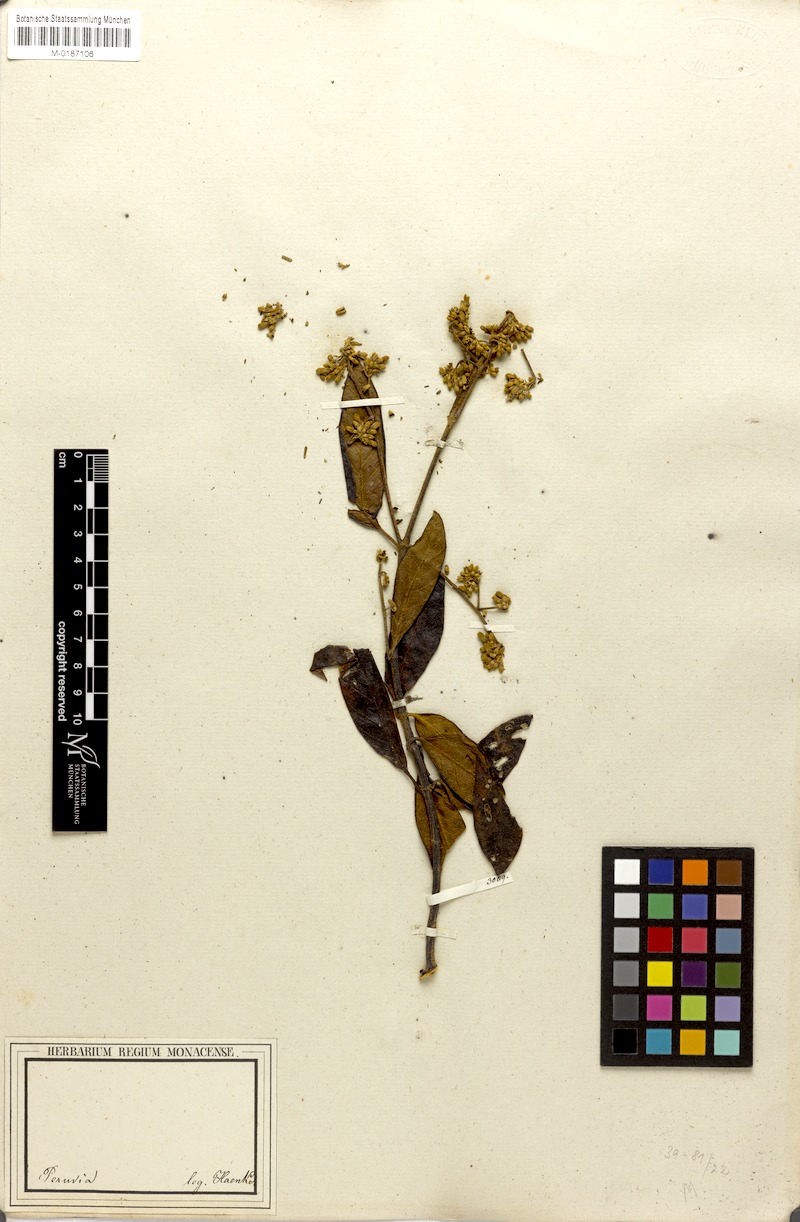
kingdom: Plantae
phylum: Tracheophyta
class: Magnoliopsida
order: Gentianales
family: Rubiaceae
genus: Cinchona
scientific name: Cinchona
